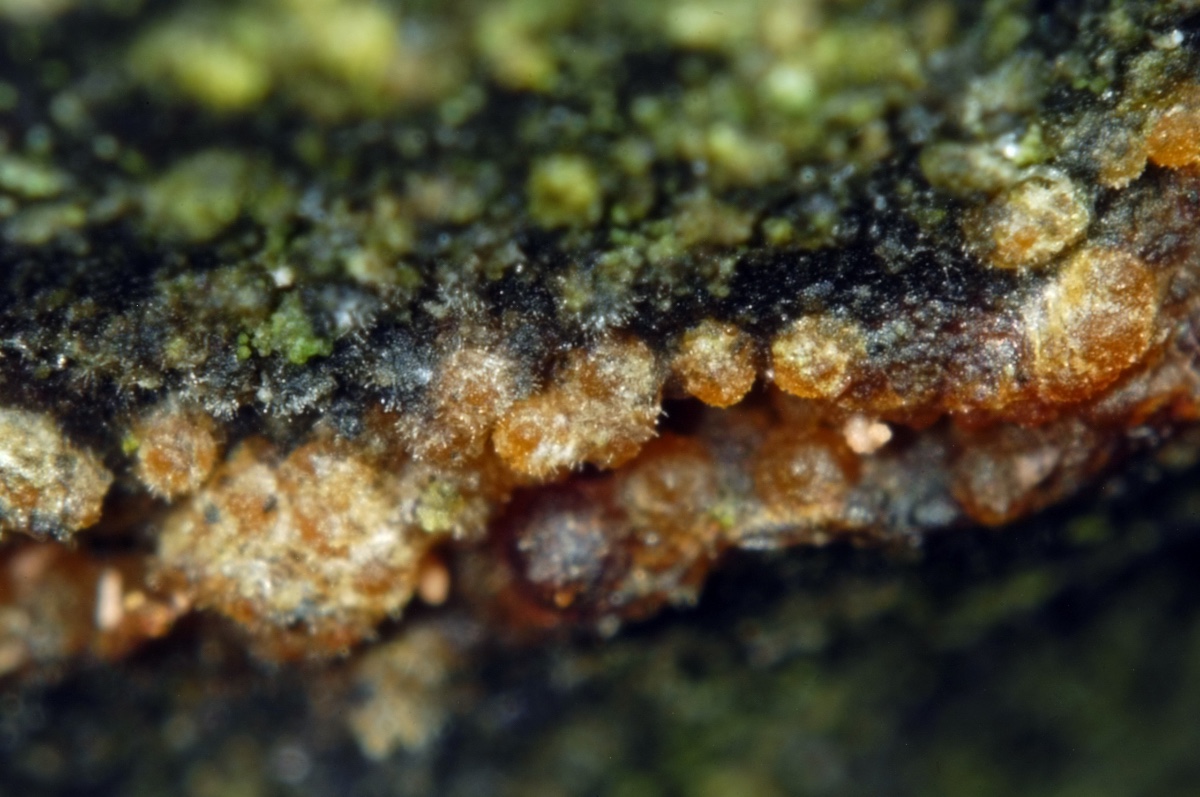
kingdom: Fungi
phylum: Ascomycota
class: Sordariomycetes
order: Hypocreales
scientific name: Hypocreales
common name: kødkerneordenen
